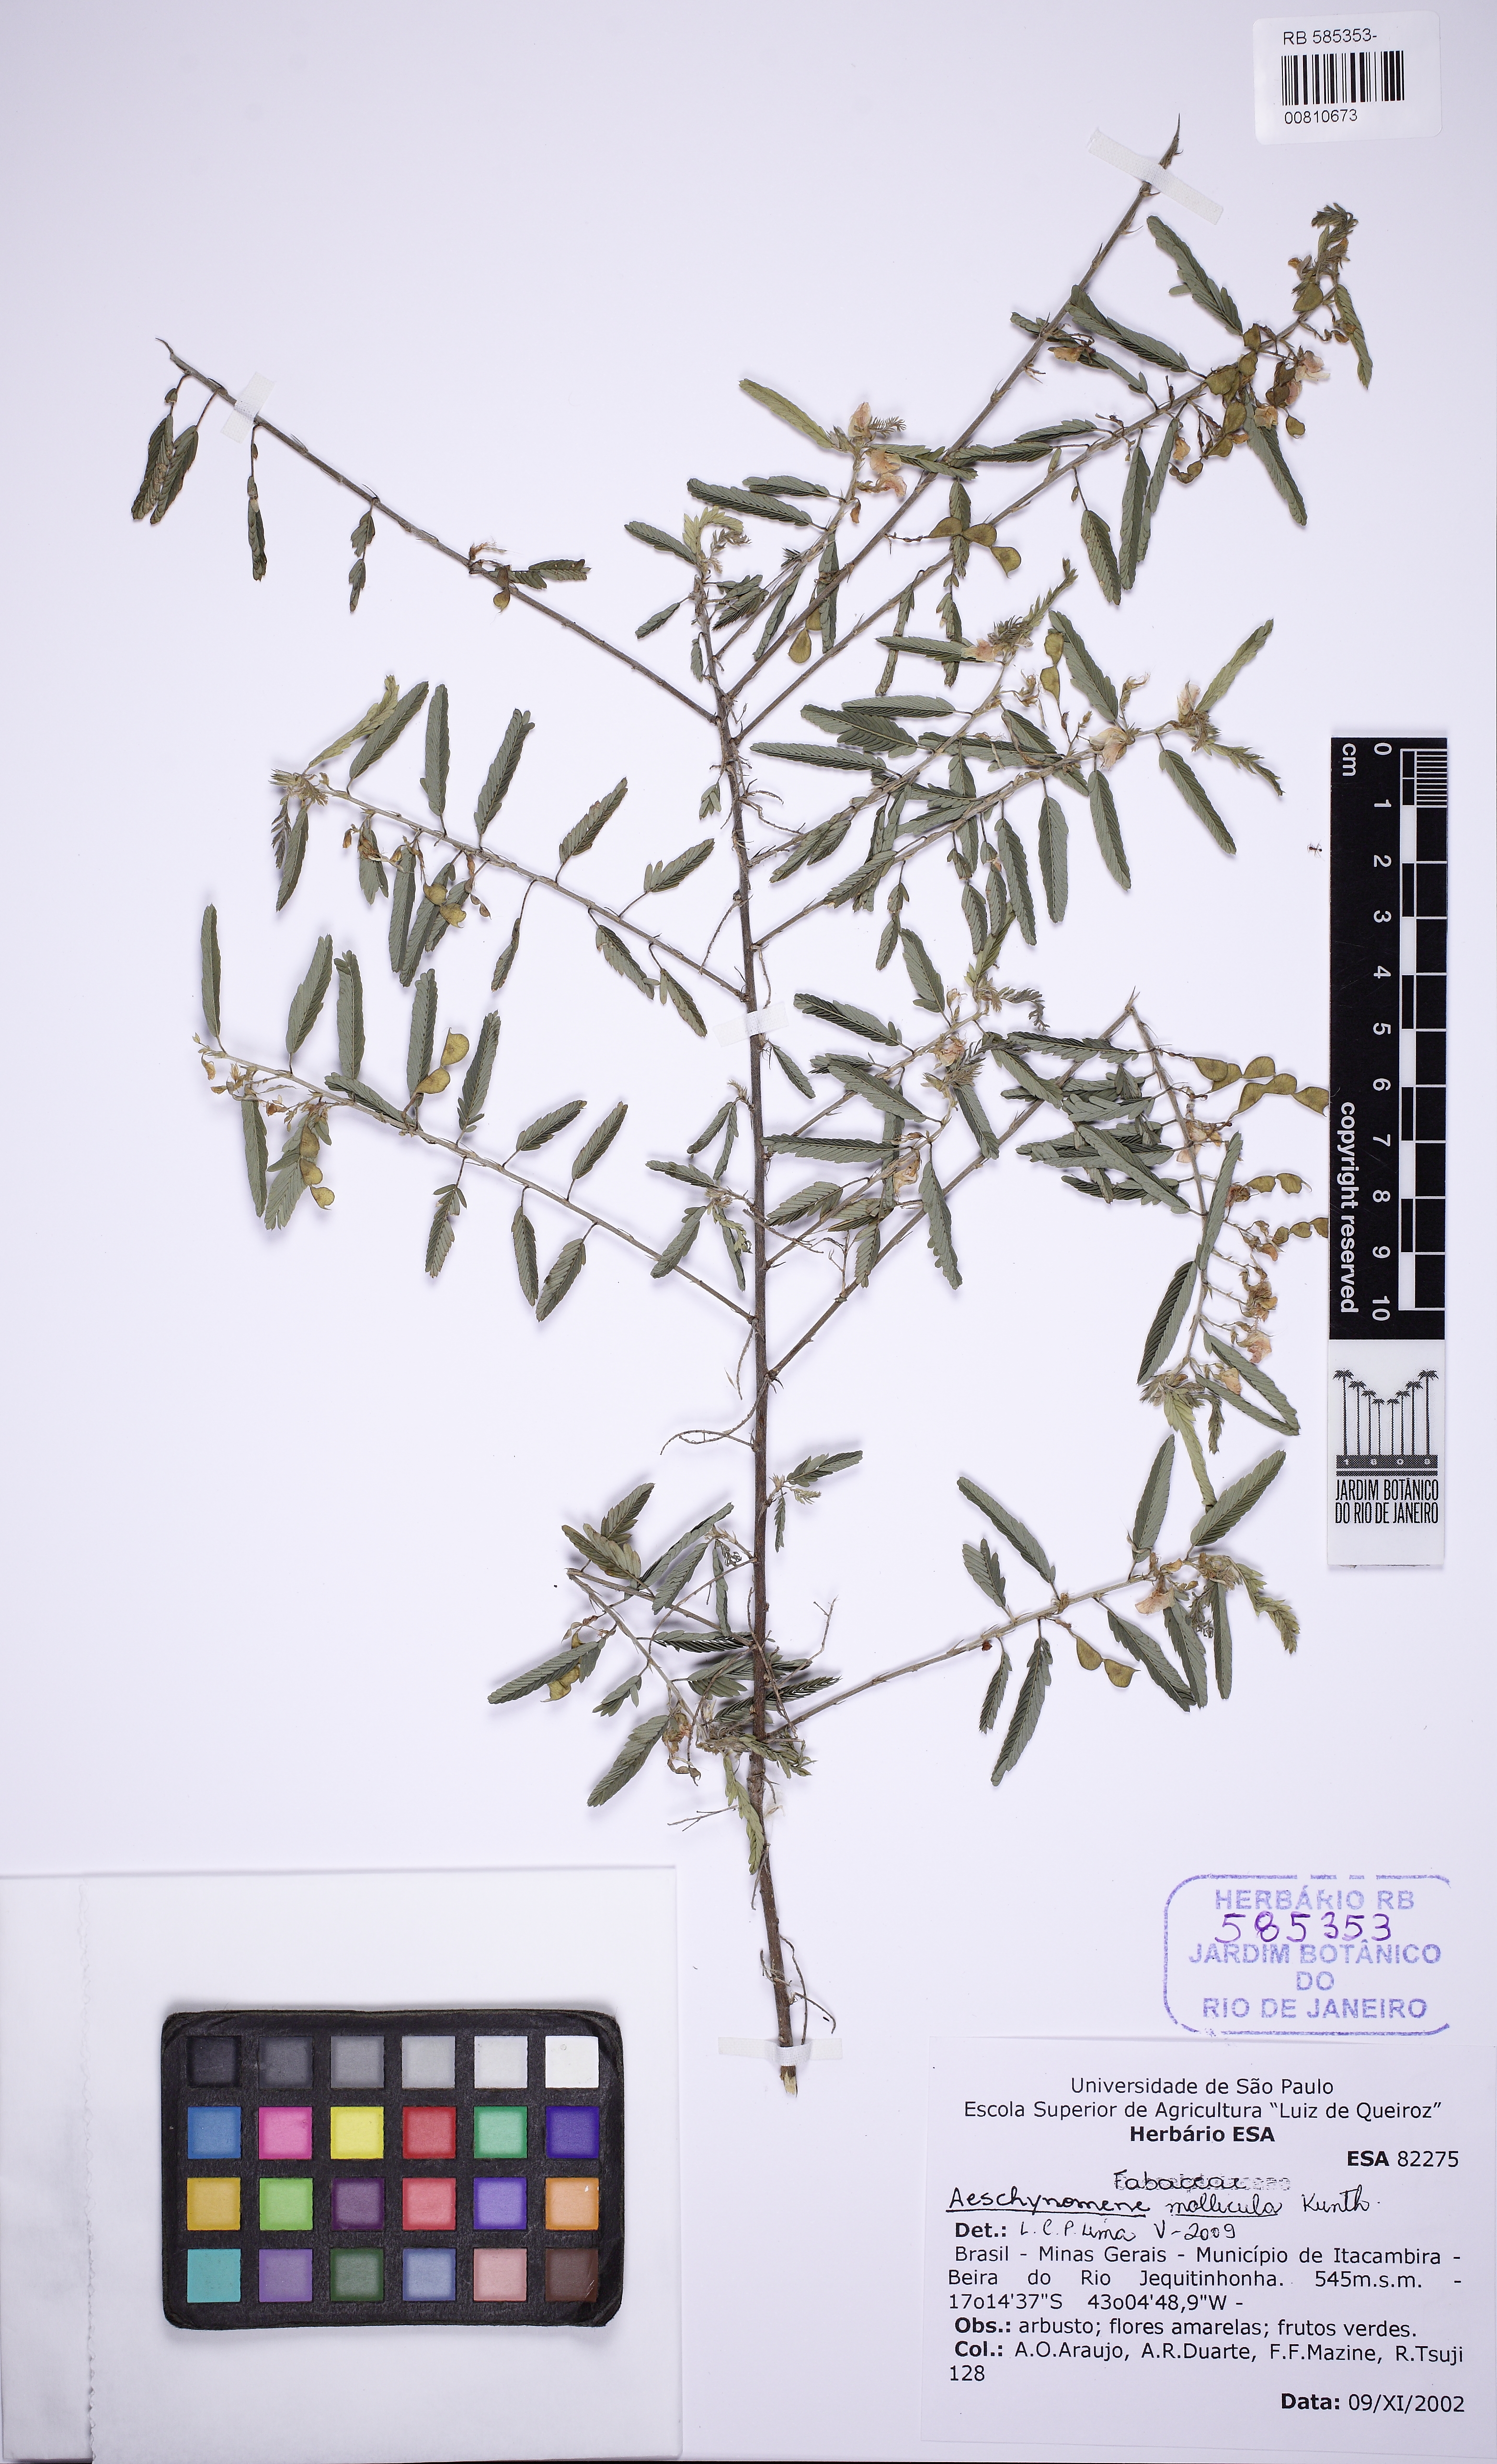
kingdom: Plantae
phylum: Tracheophyta
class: Magnoliopsida
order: Fabales
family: Fabaceae
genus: Ctenodon
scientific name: Ctenodon molliculus
